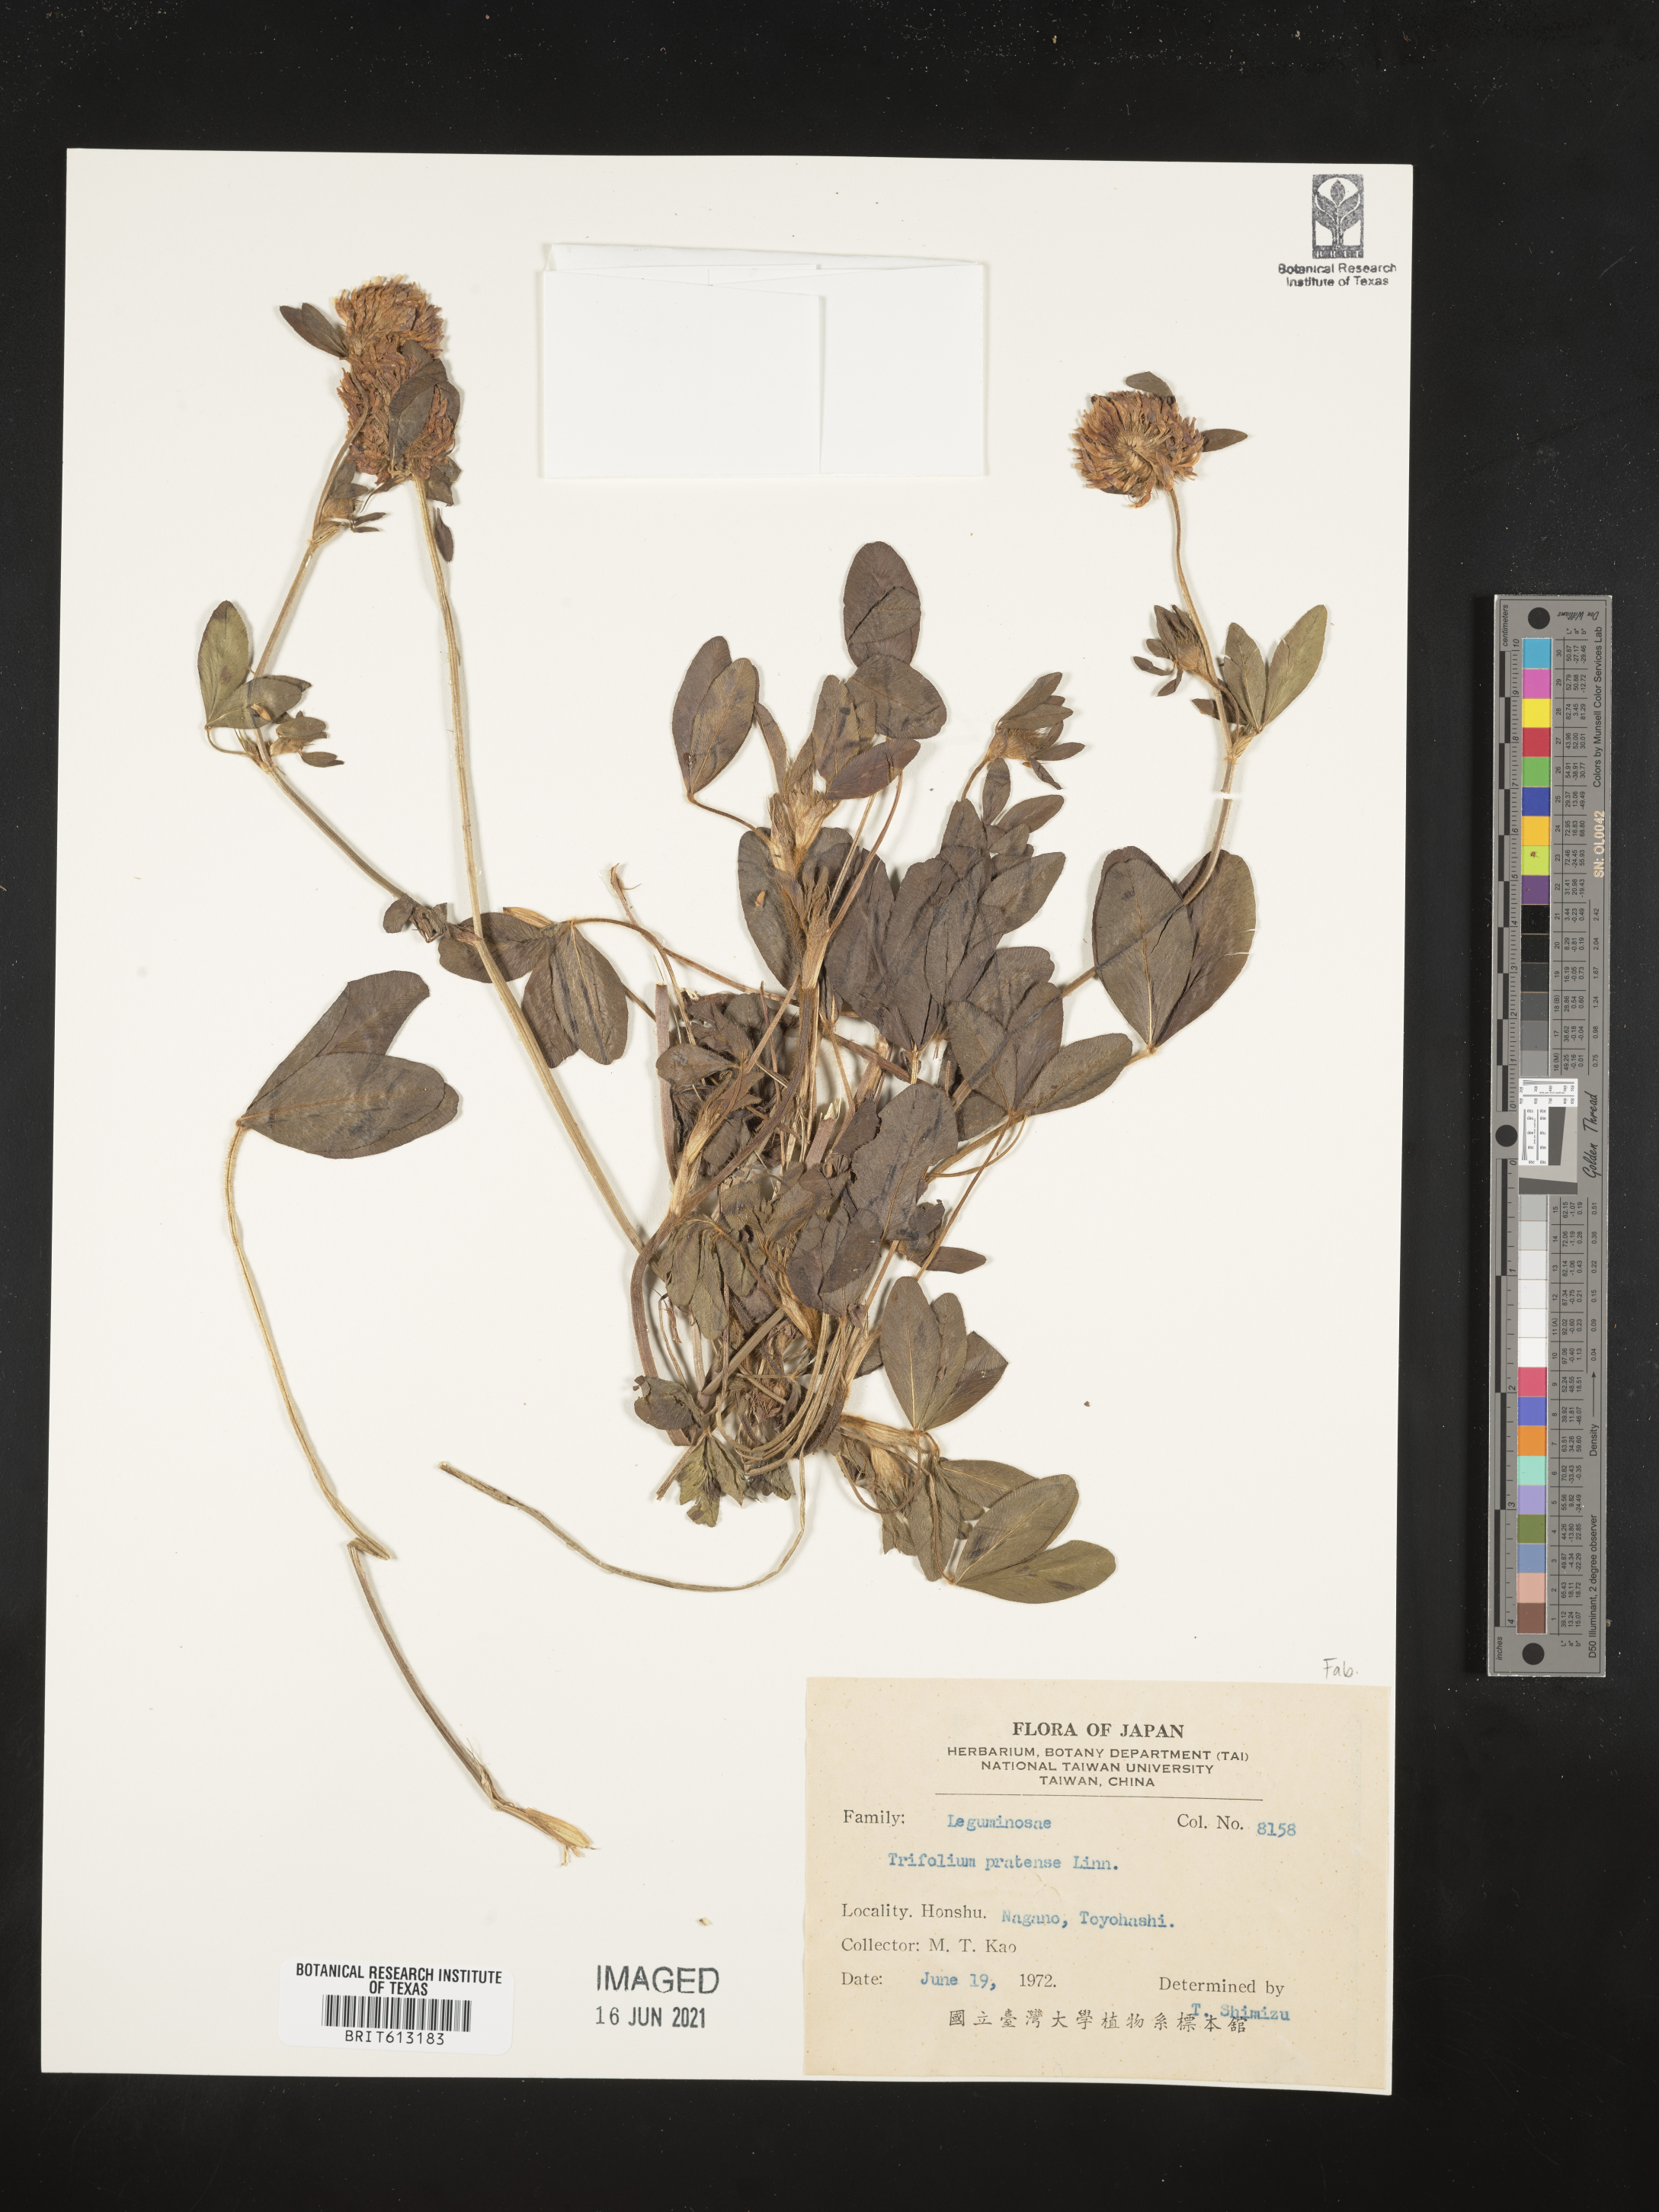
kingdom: Plantae
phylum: Tracheophyta
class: Magnoliopsida
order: Fabales
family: Fabaceae
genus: Trifolium
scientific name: Trifolium pratense
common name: Red clover
